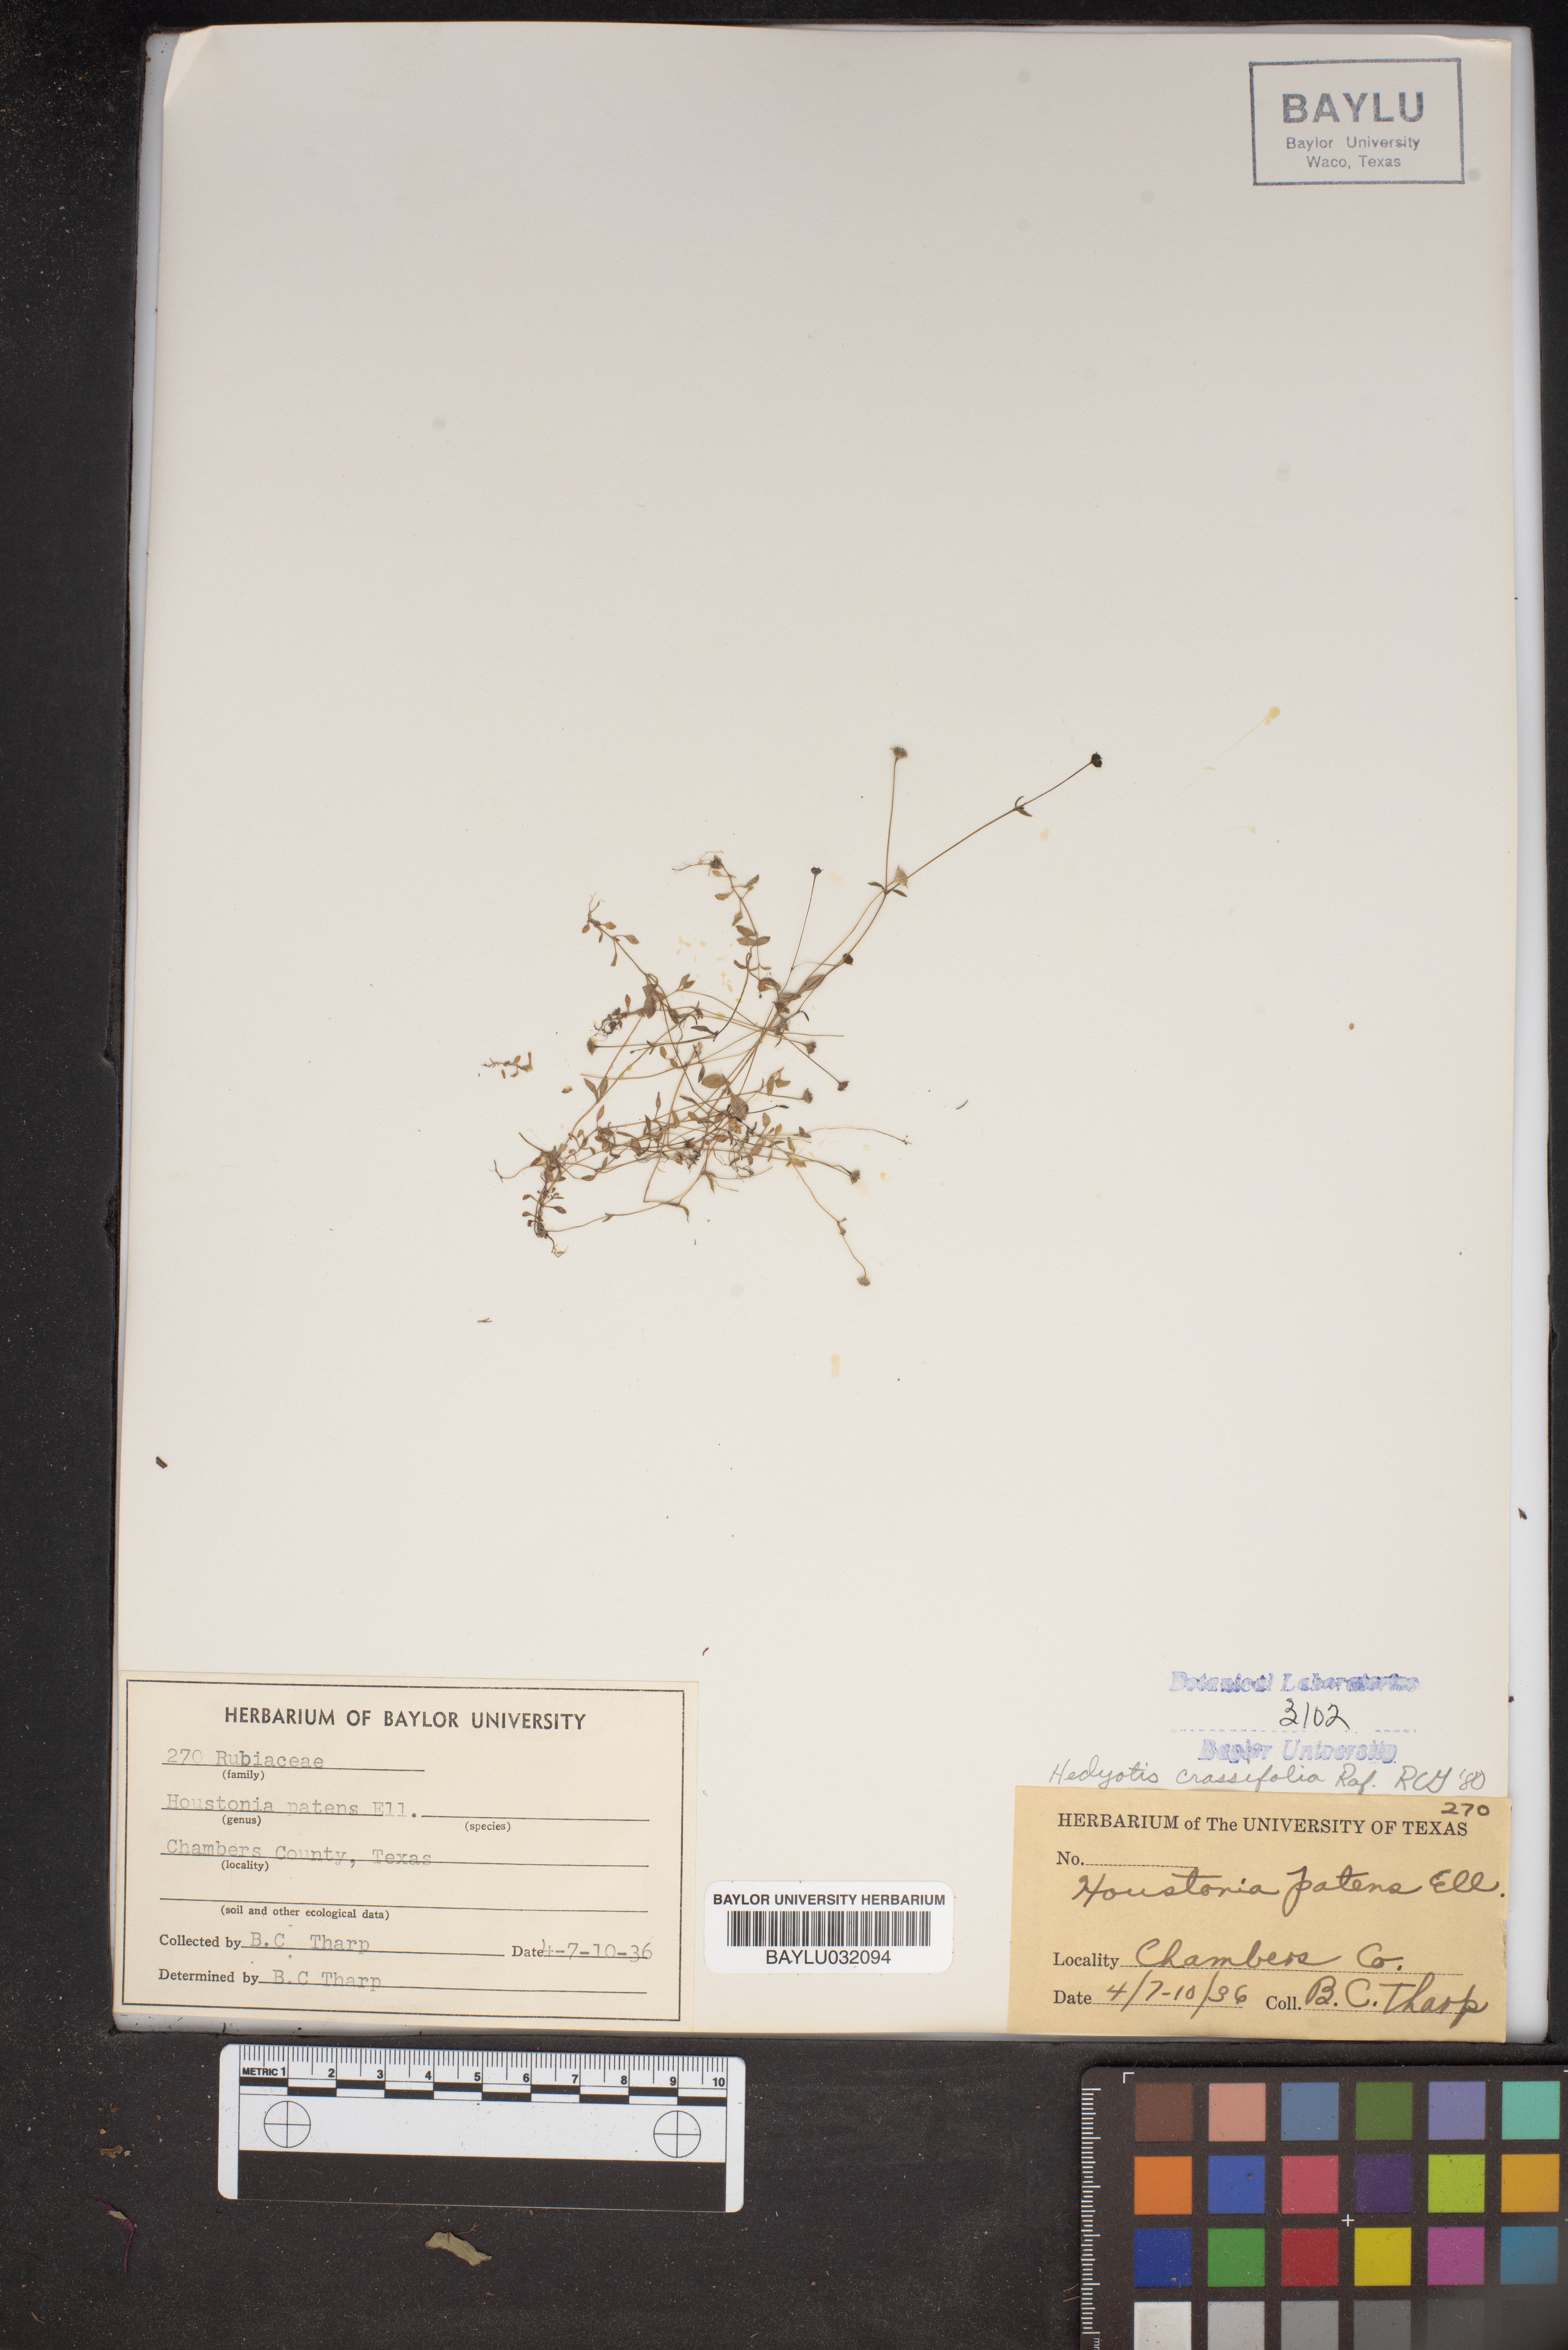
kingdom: Plantae
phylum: Tracheophyta
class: Magnoliopsida
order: Gentianales
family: Rubiaceae
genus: Houstonia
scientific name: Houstonia pusilla
